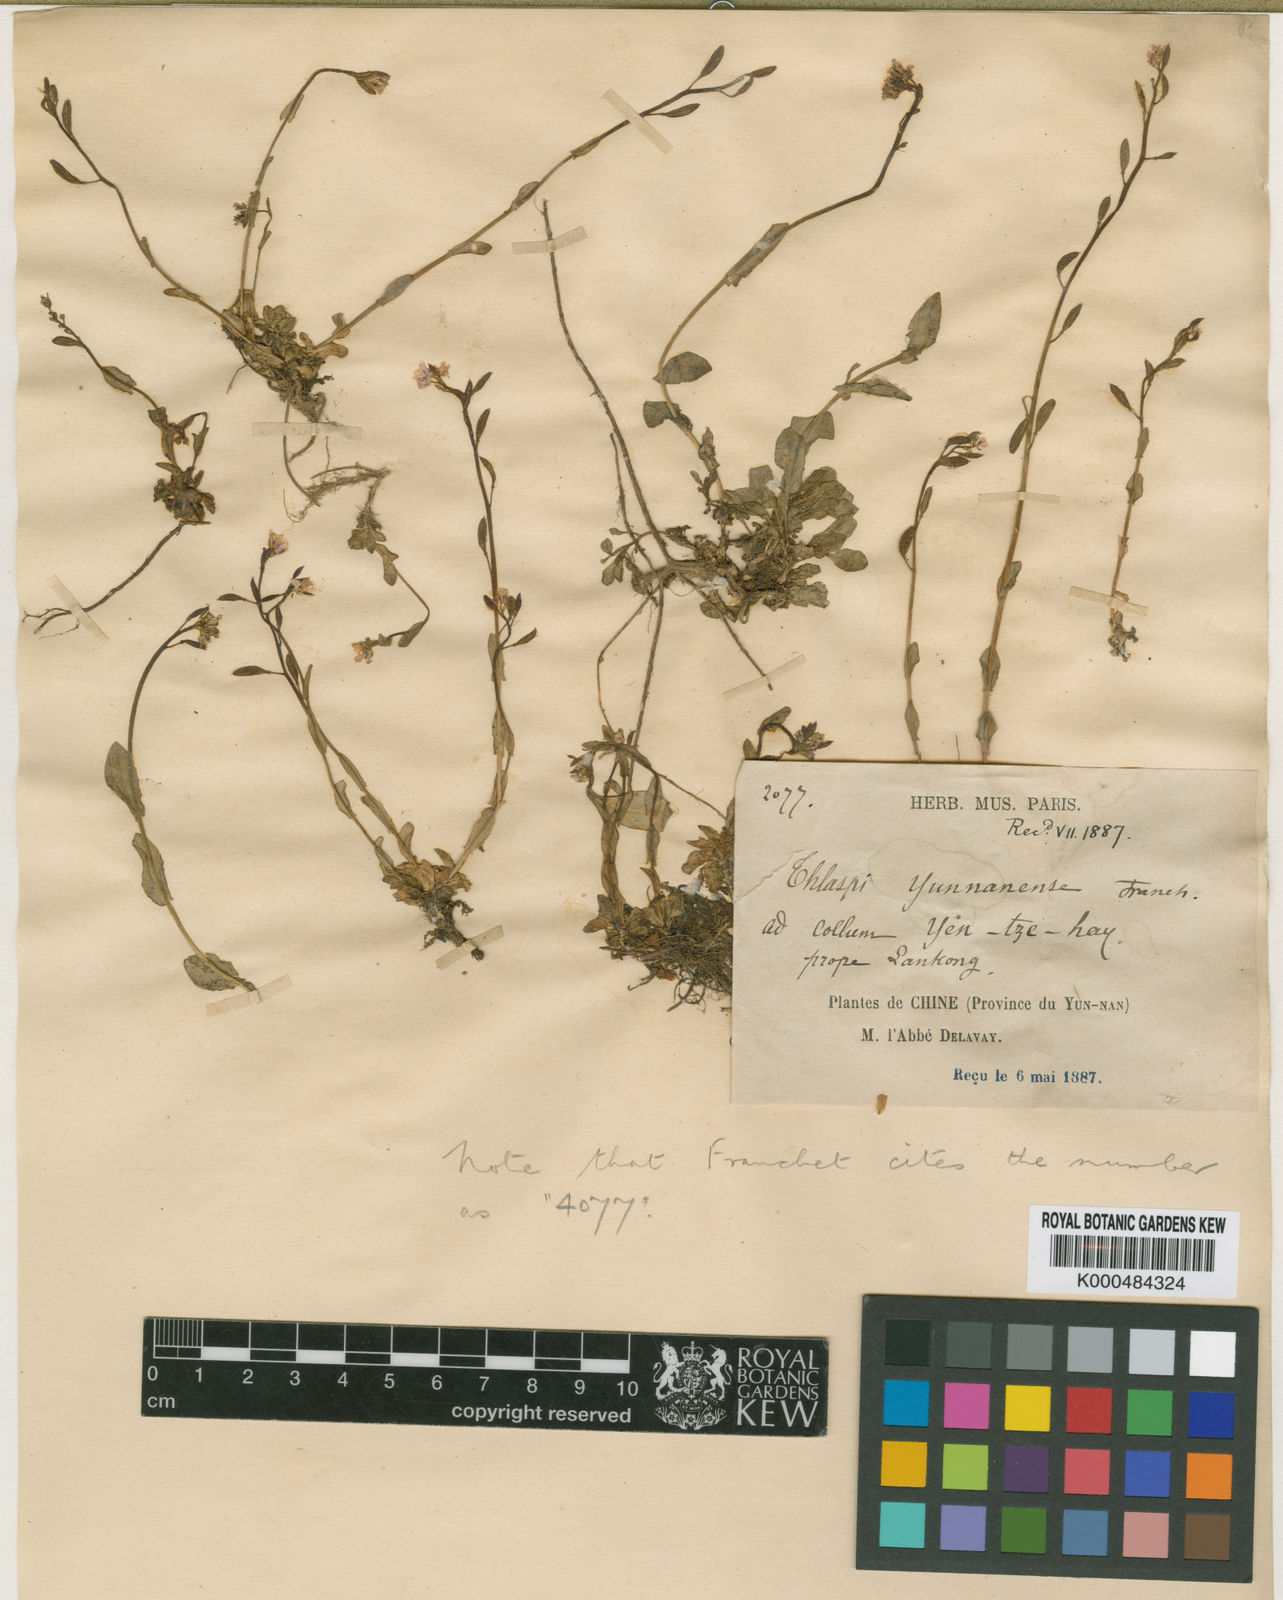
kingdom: Plantae
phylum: Tracheophyta
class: Magnoliopsida
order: Brassicales
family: Brassicaceae
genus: Noccaea
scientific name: Noccaea yunnanensis
